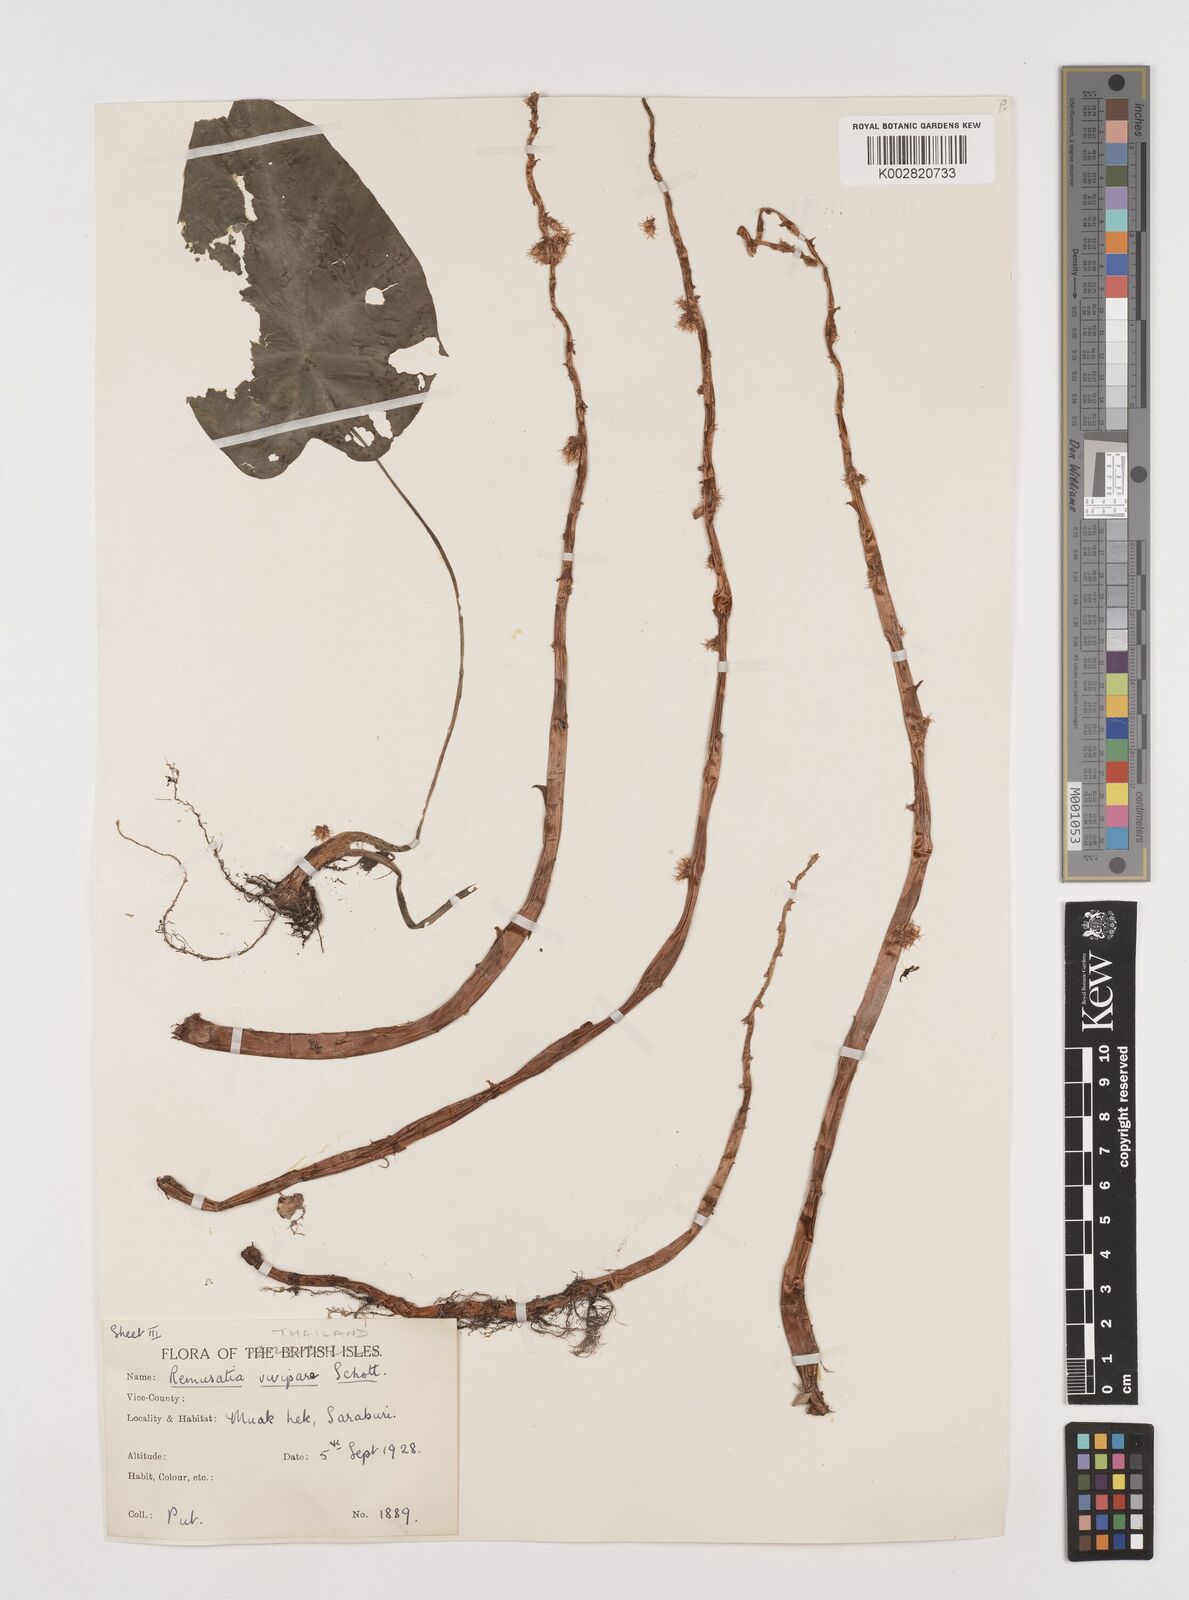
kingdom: Plantae
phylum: Tracheophyta
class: Liliopsida
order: Alismatales
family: Araceae
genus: Remusatia
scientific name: Remusatia vivipara
